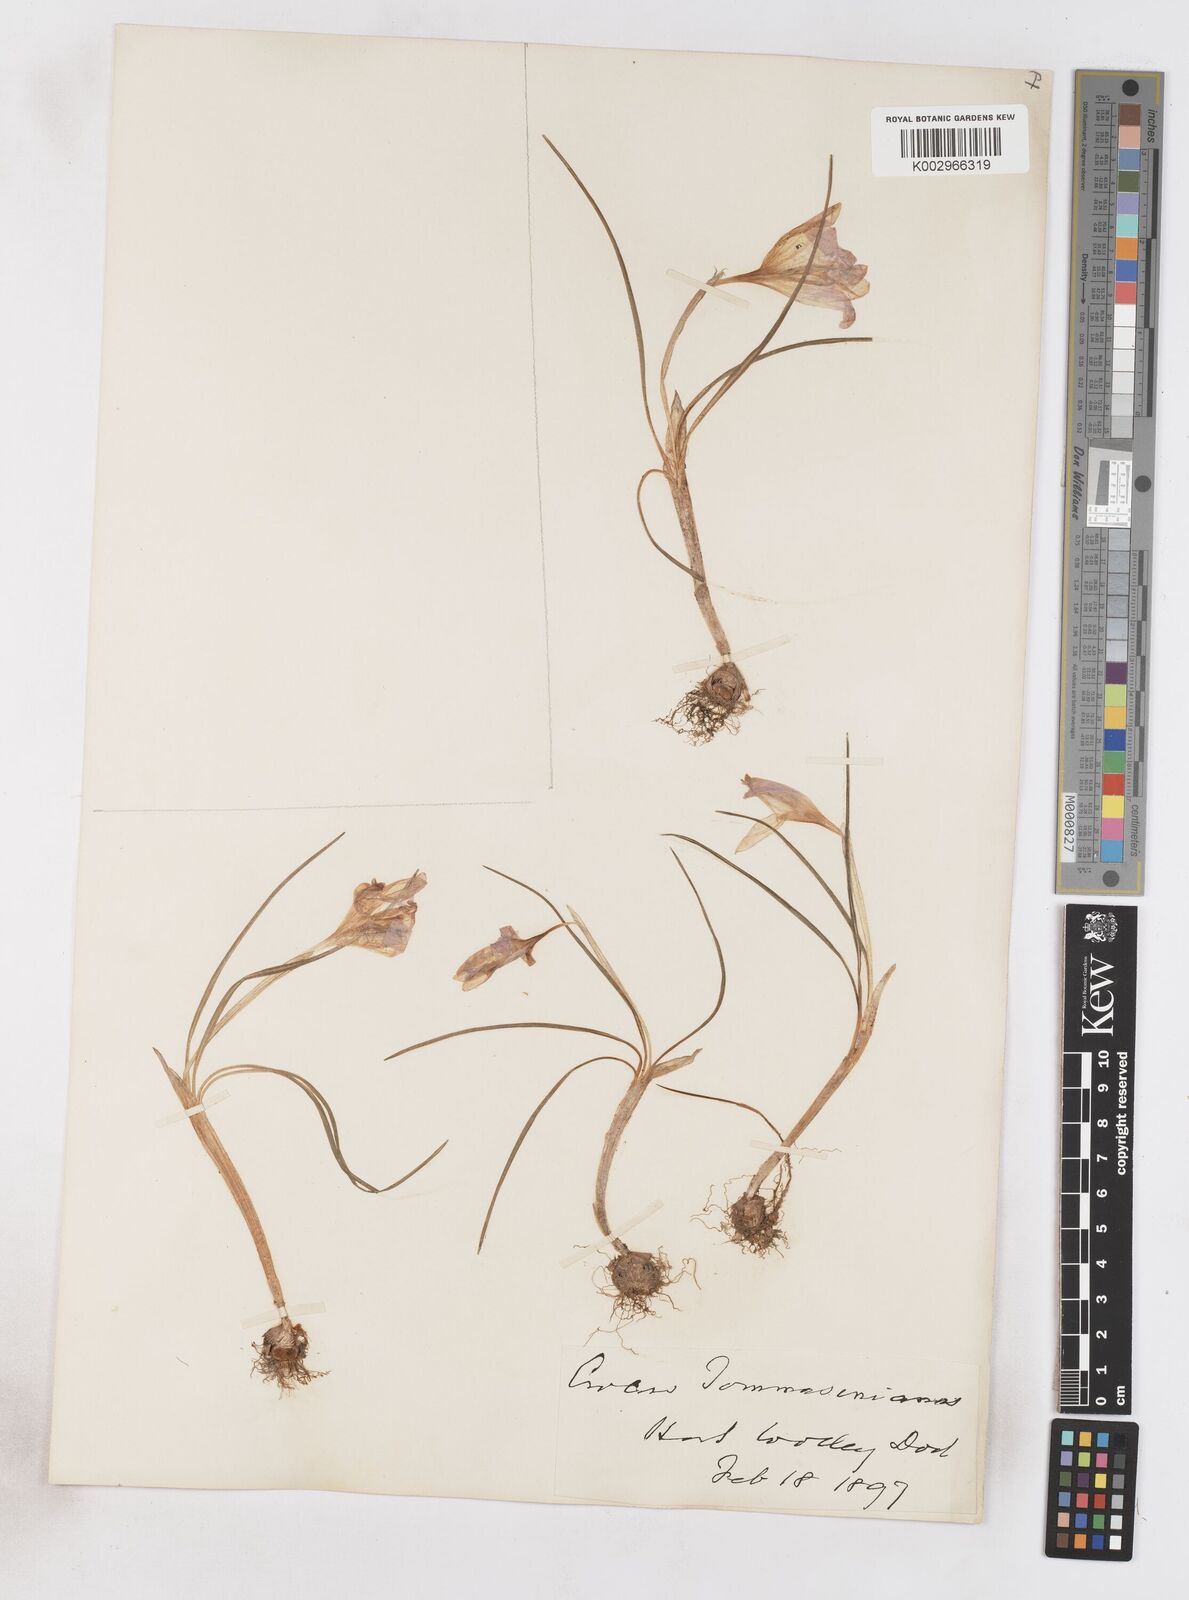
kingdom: Plantae
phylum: Tracheophyta
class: Liliopsida
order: Asparagales
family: Iridaceae
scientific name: Iridaceae
